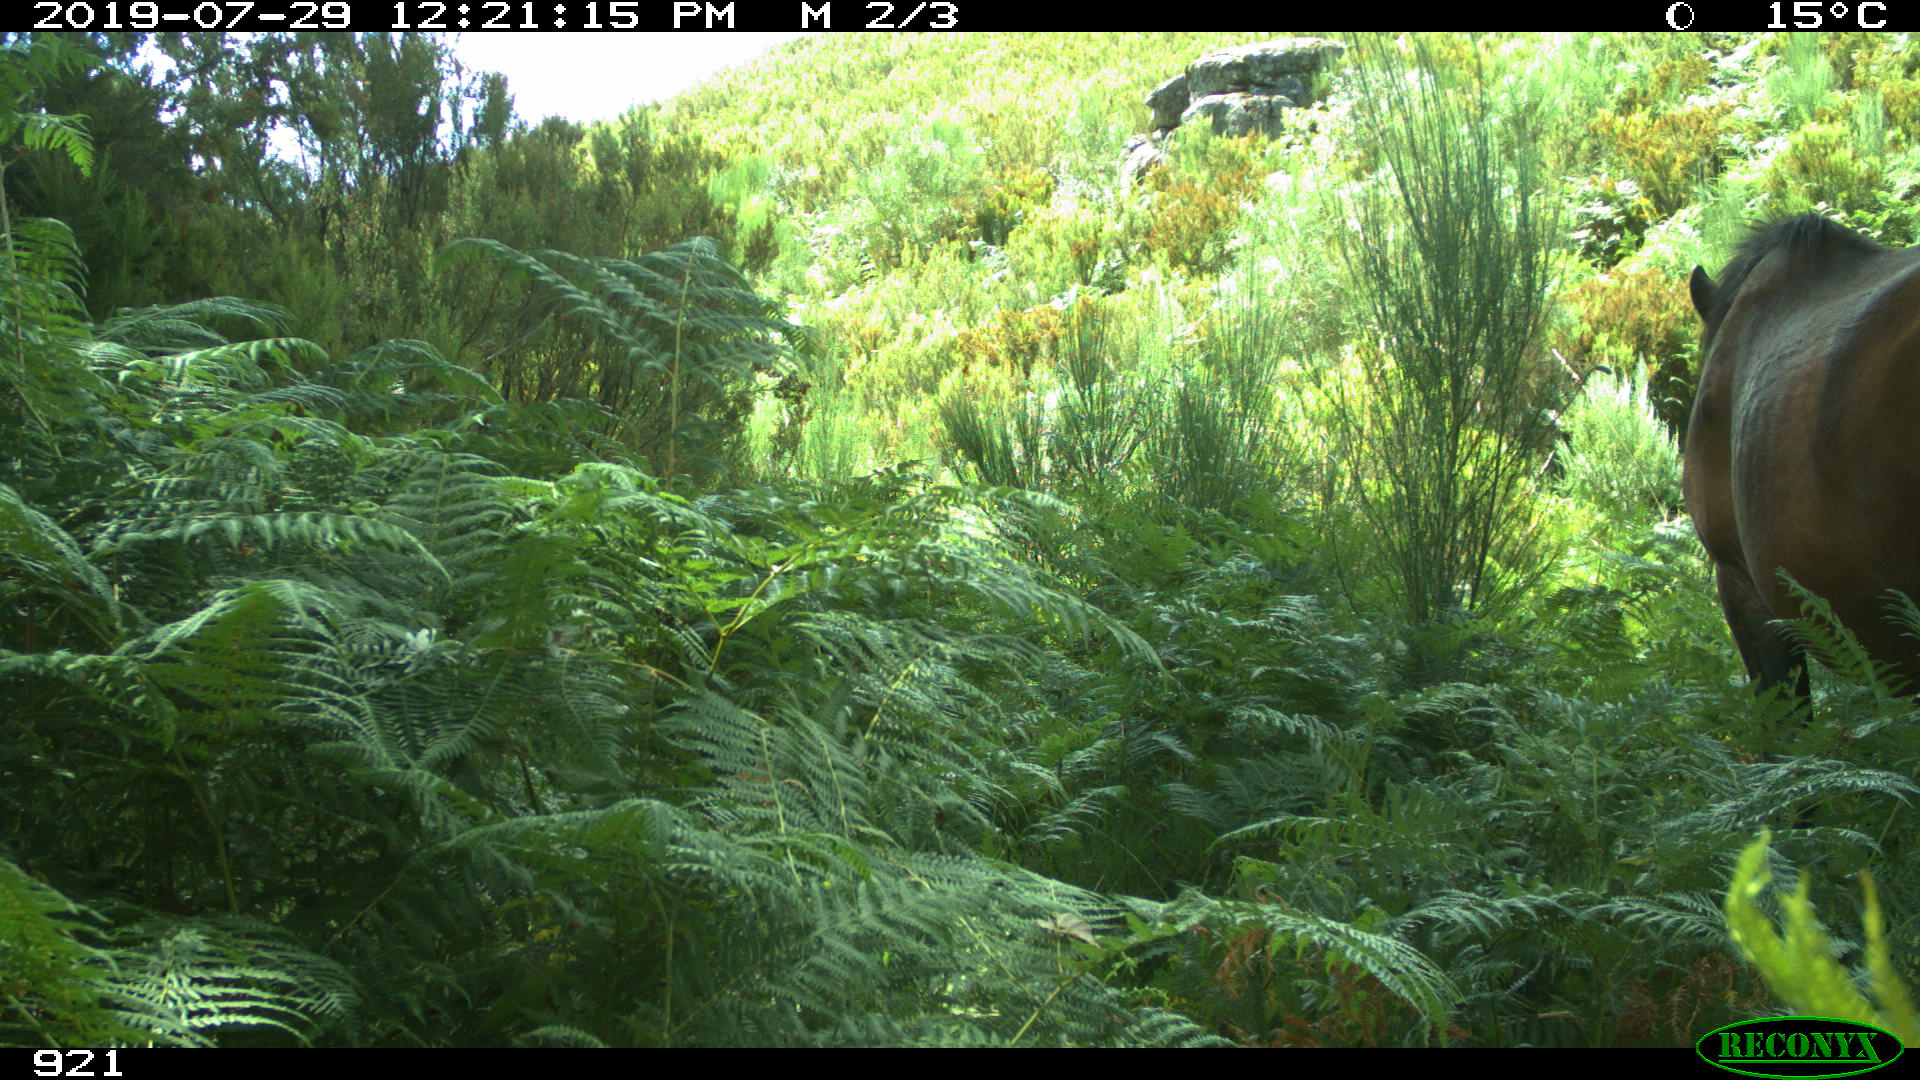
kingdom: Animalia
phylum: Chordata
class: Mammalia
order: Perissodactyla
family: Equidae
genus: Equus
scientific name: Equus caballus
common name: Horse
